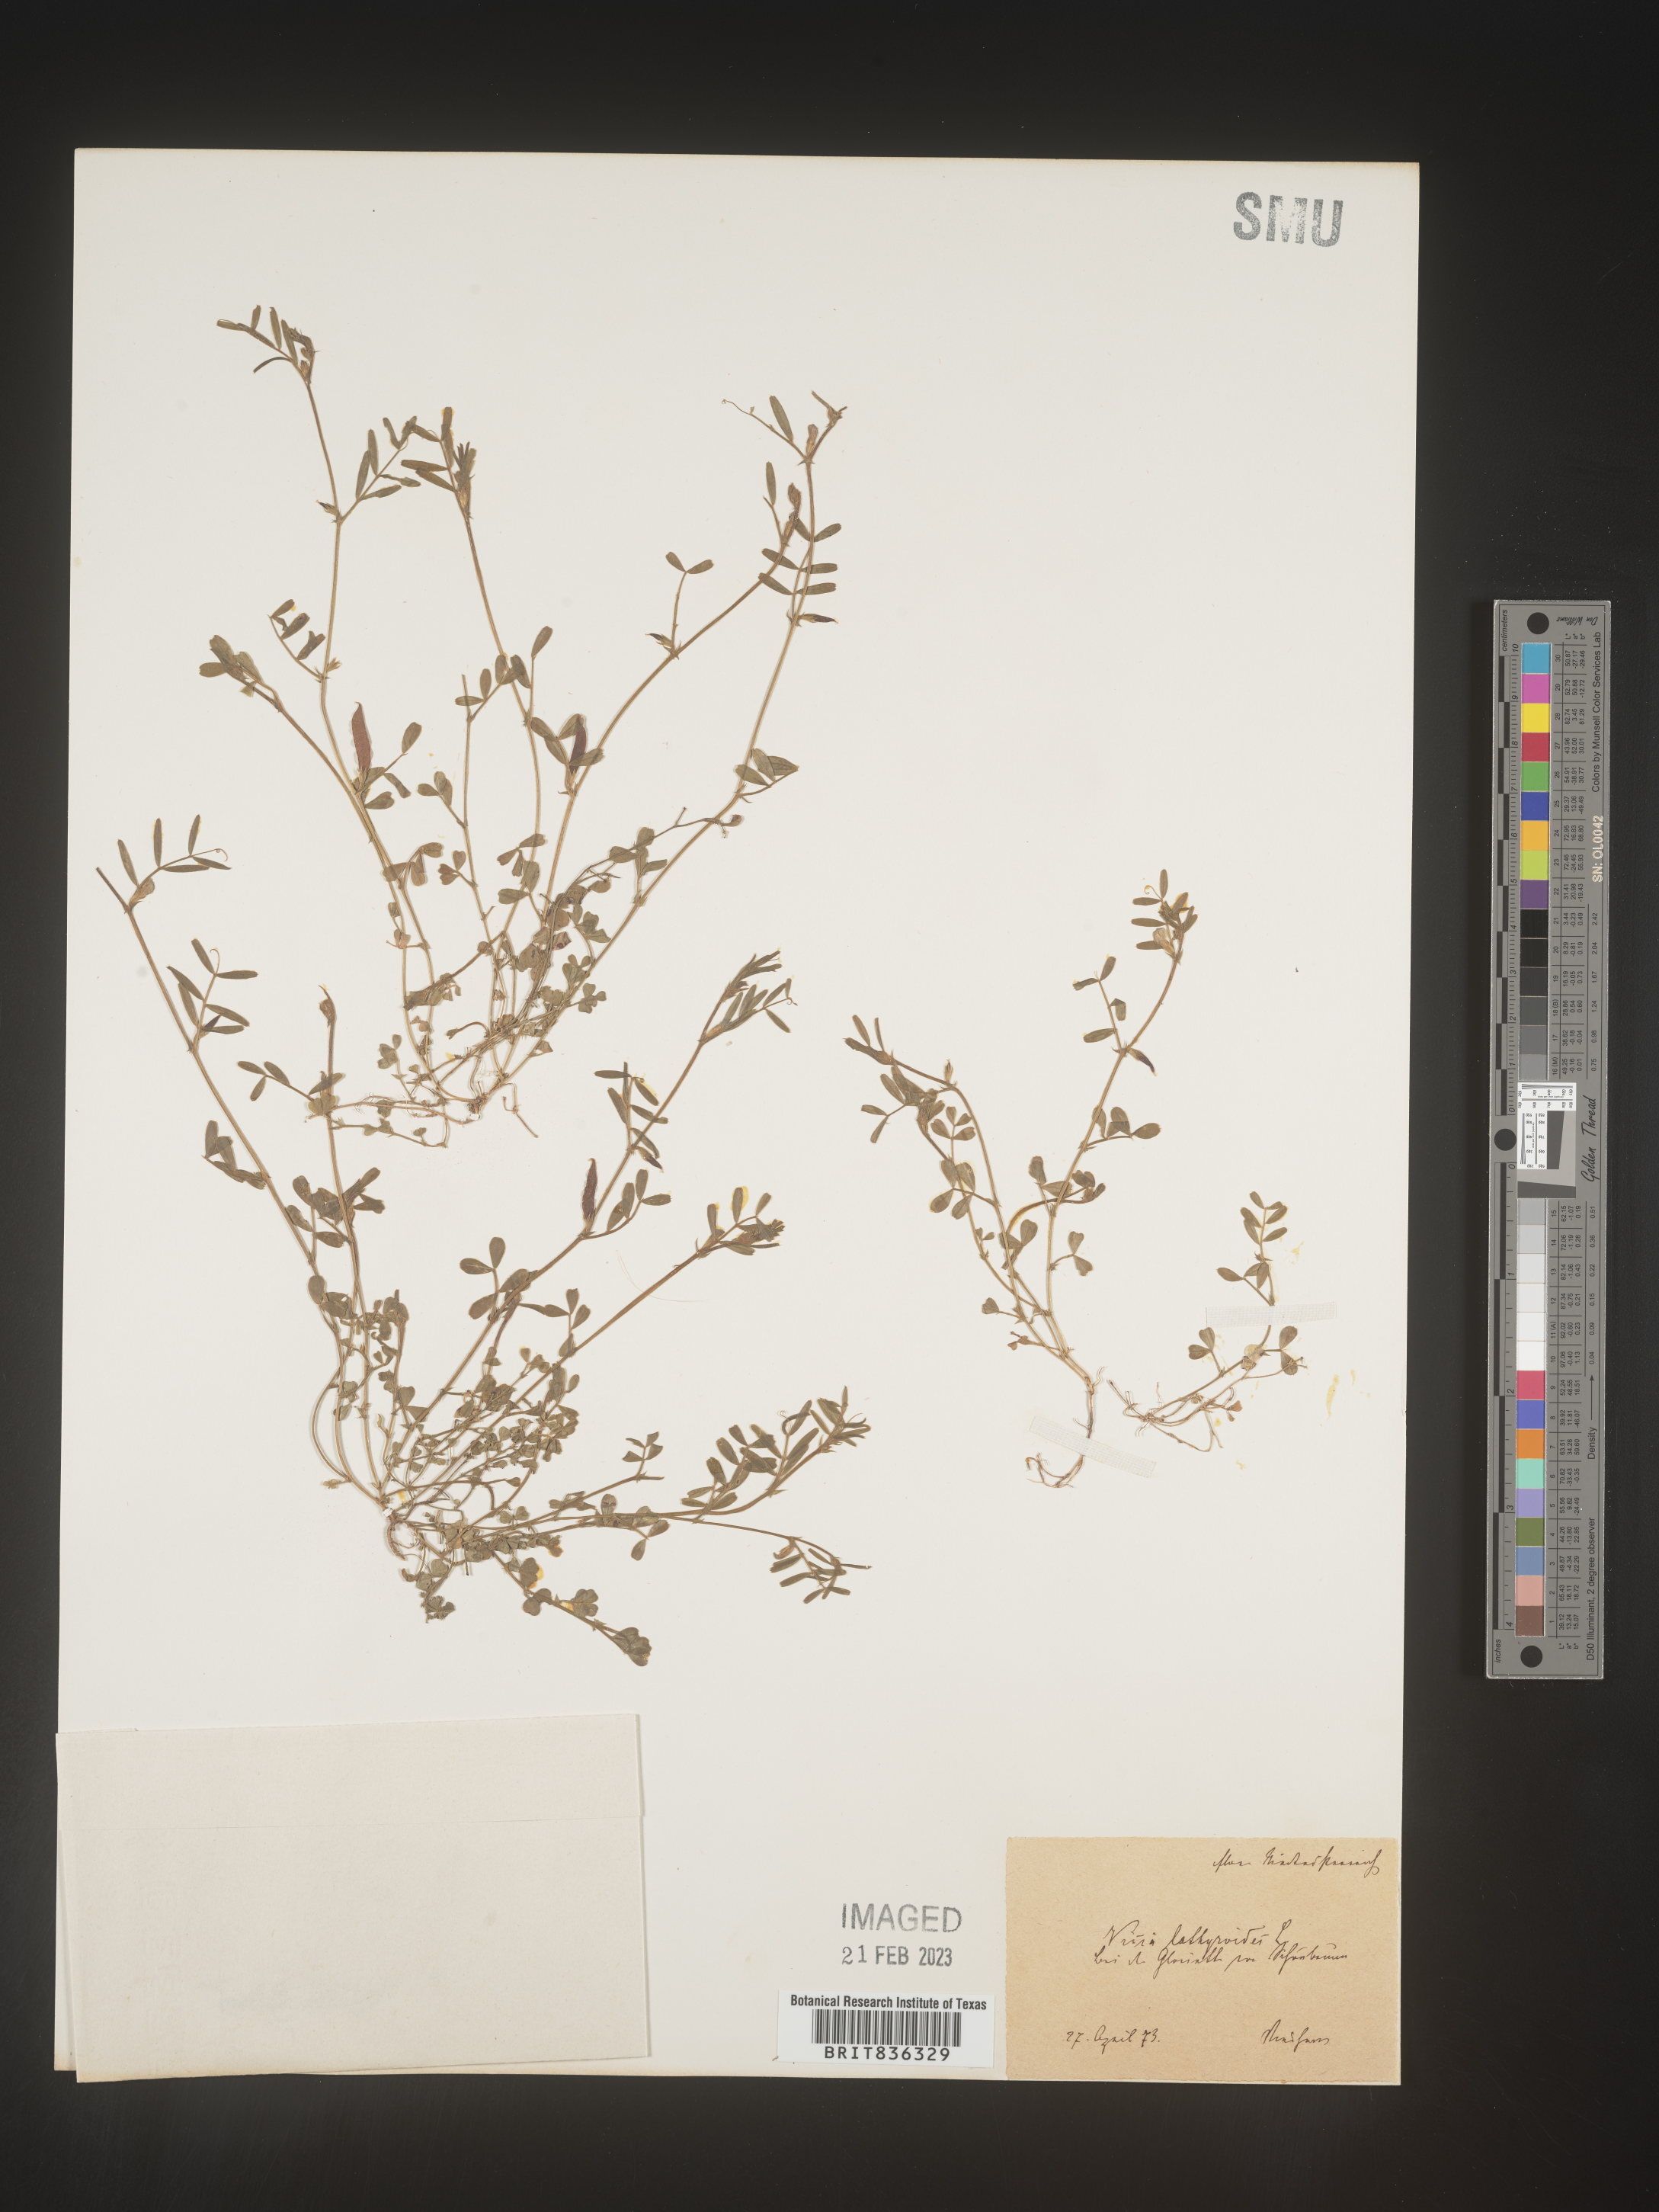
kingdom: Plantae
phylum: Tracheophyta
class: Magnoliopsida
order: Fabales
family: Fabaceae
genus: Vicia
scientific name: Vicia
